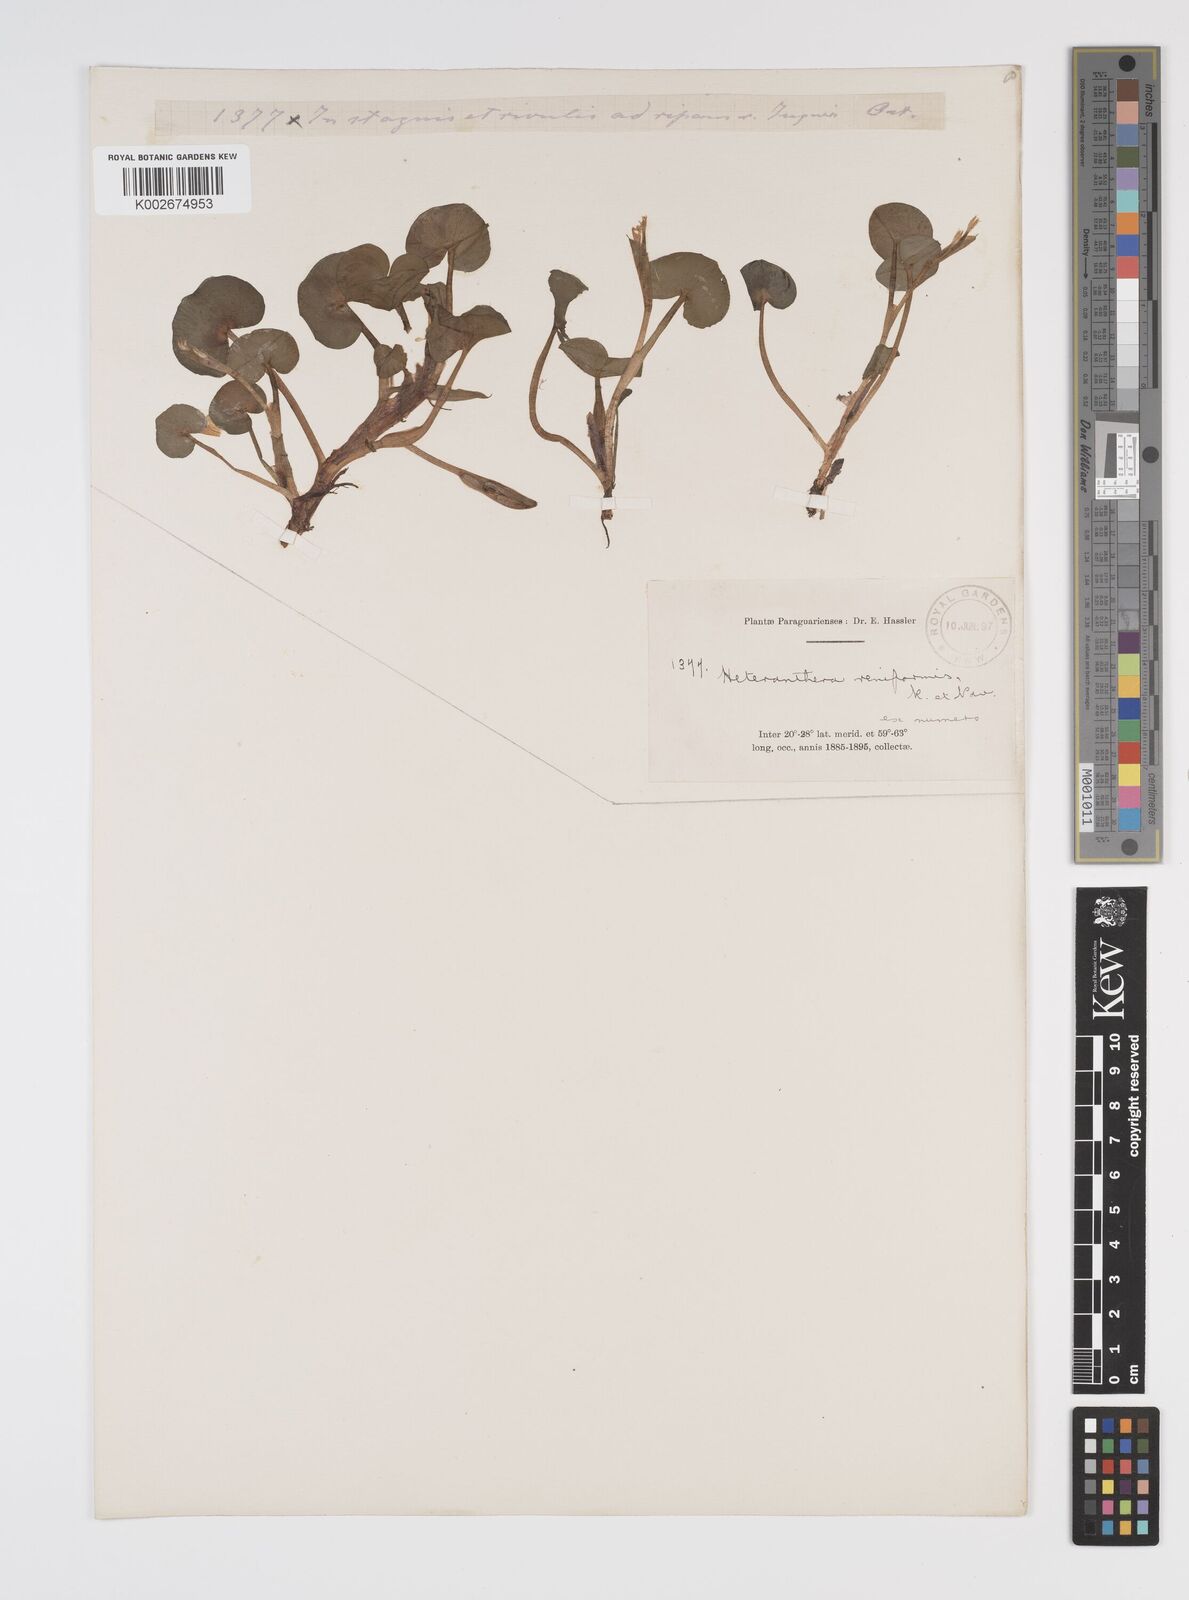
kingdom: Plantae
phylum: Tracheophyta
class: Liliopsida
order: Commelinales
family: Pontederiaceae
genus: Heteranthera
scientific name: Heteranthera reniformis
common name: Kidneyleaf mudplantain
